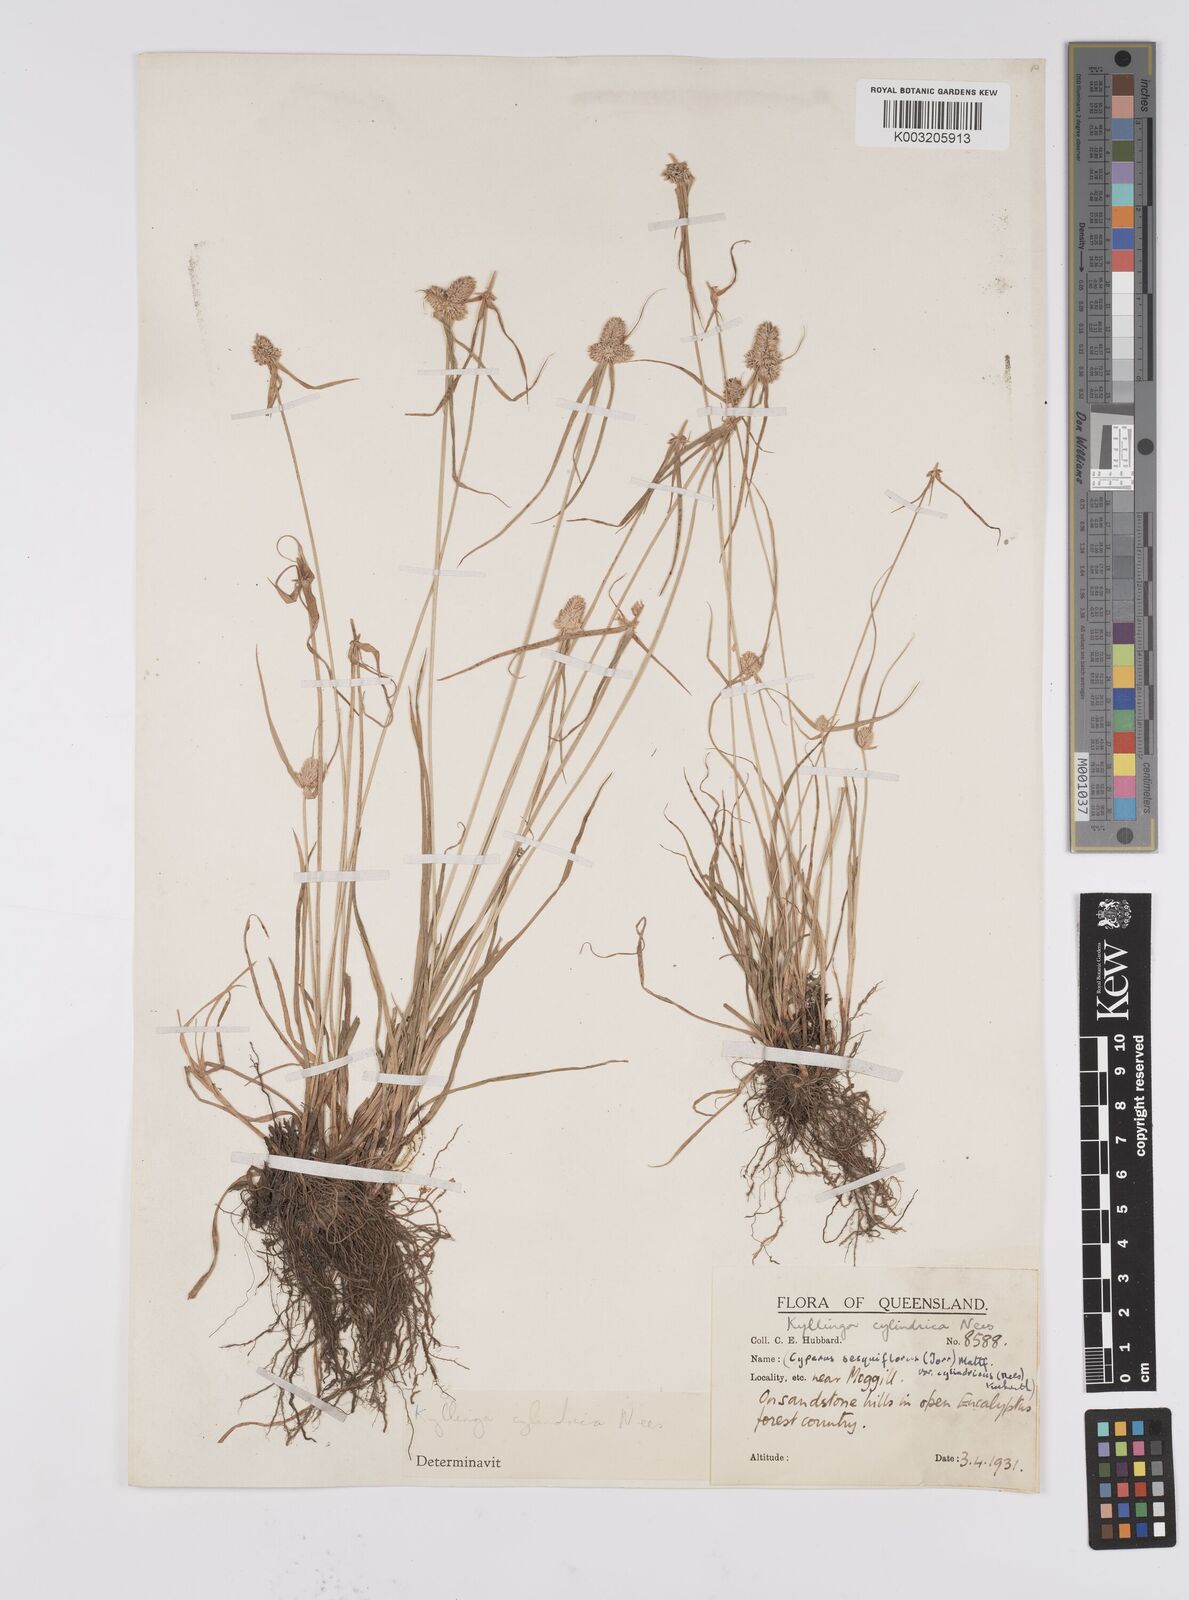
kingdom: Plantae
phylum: Tracheophyta
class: Liliopsida
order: Poales
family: Cyperaceae
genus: Cyperus
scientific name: Cyperus
